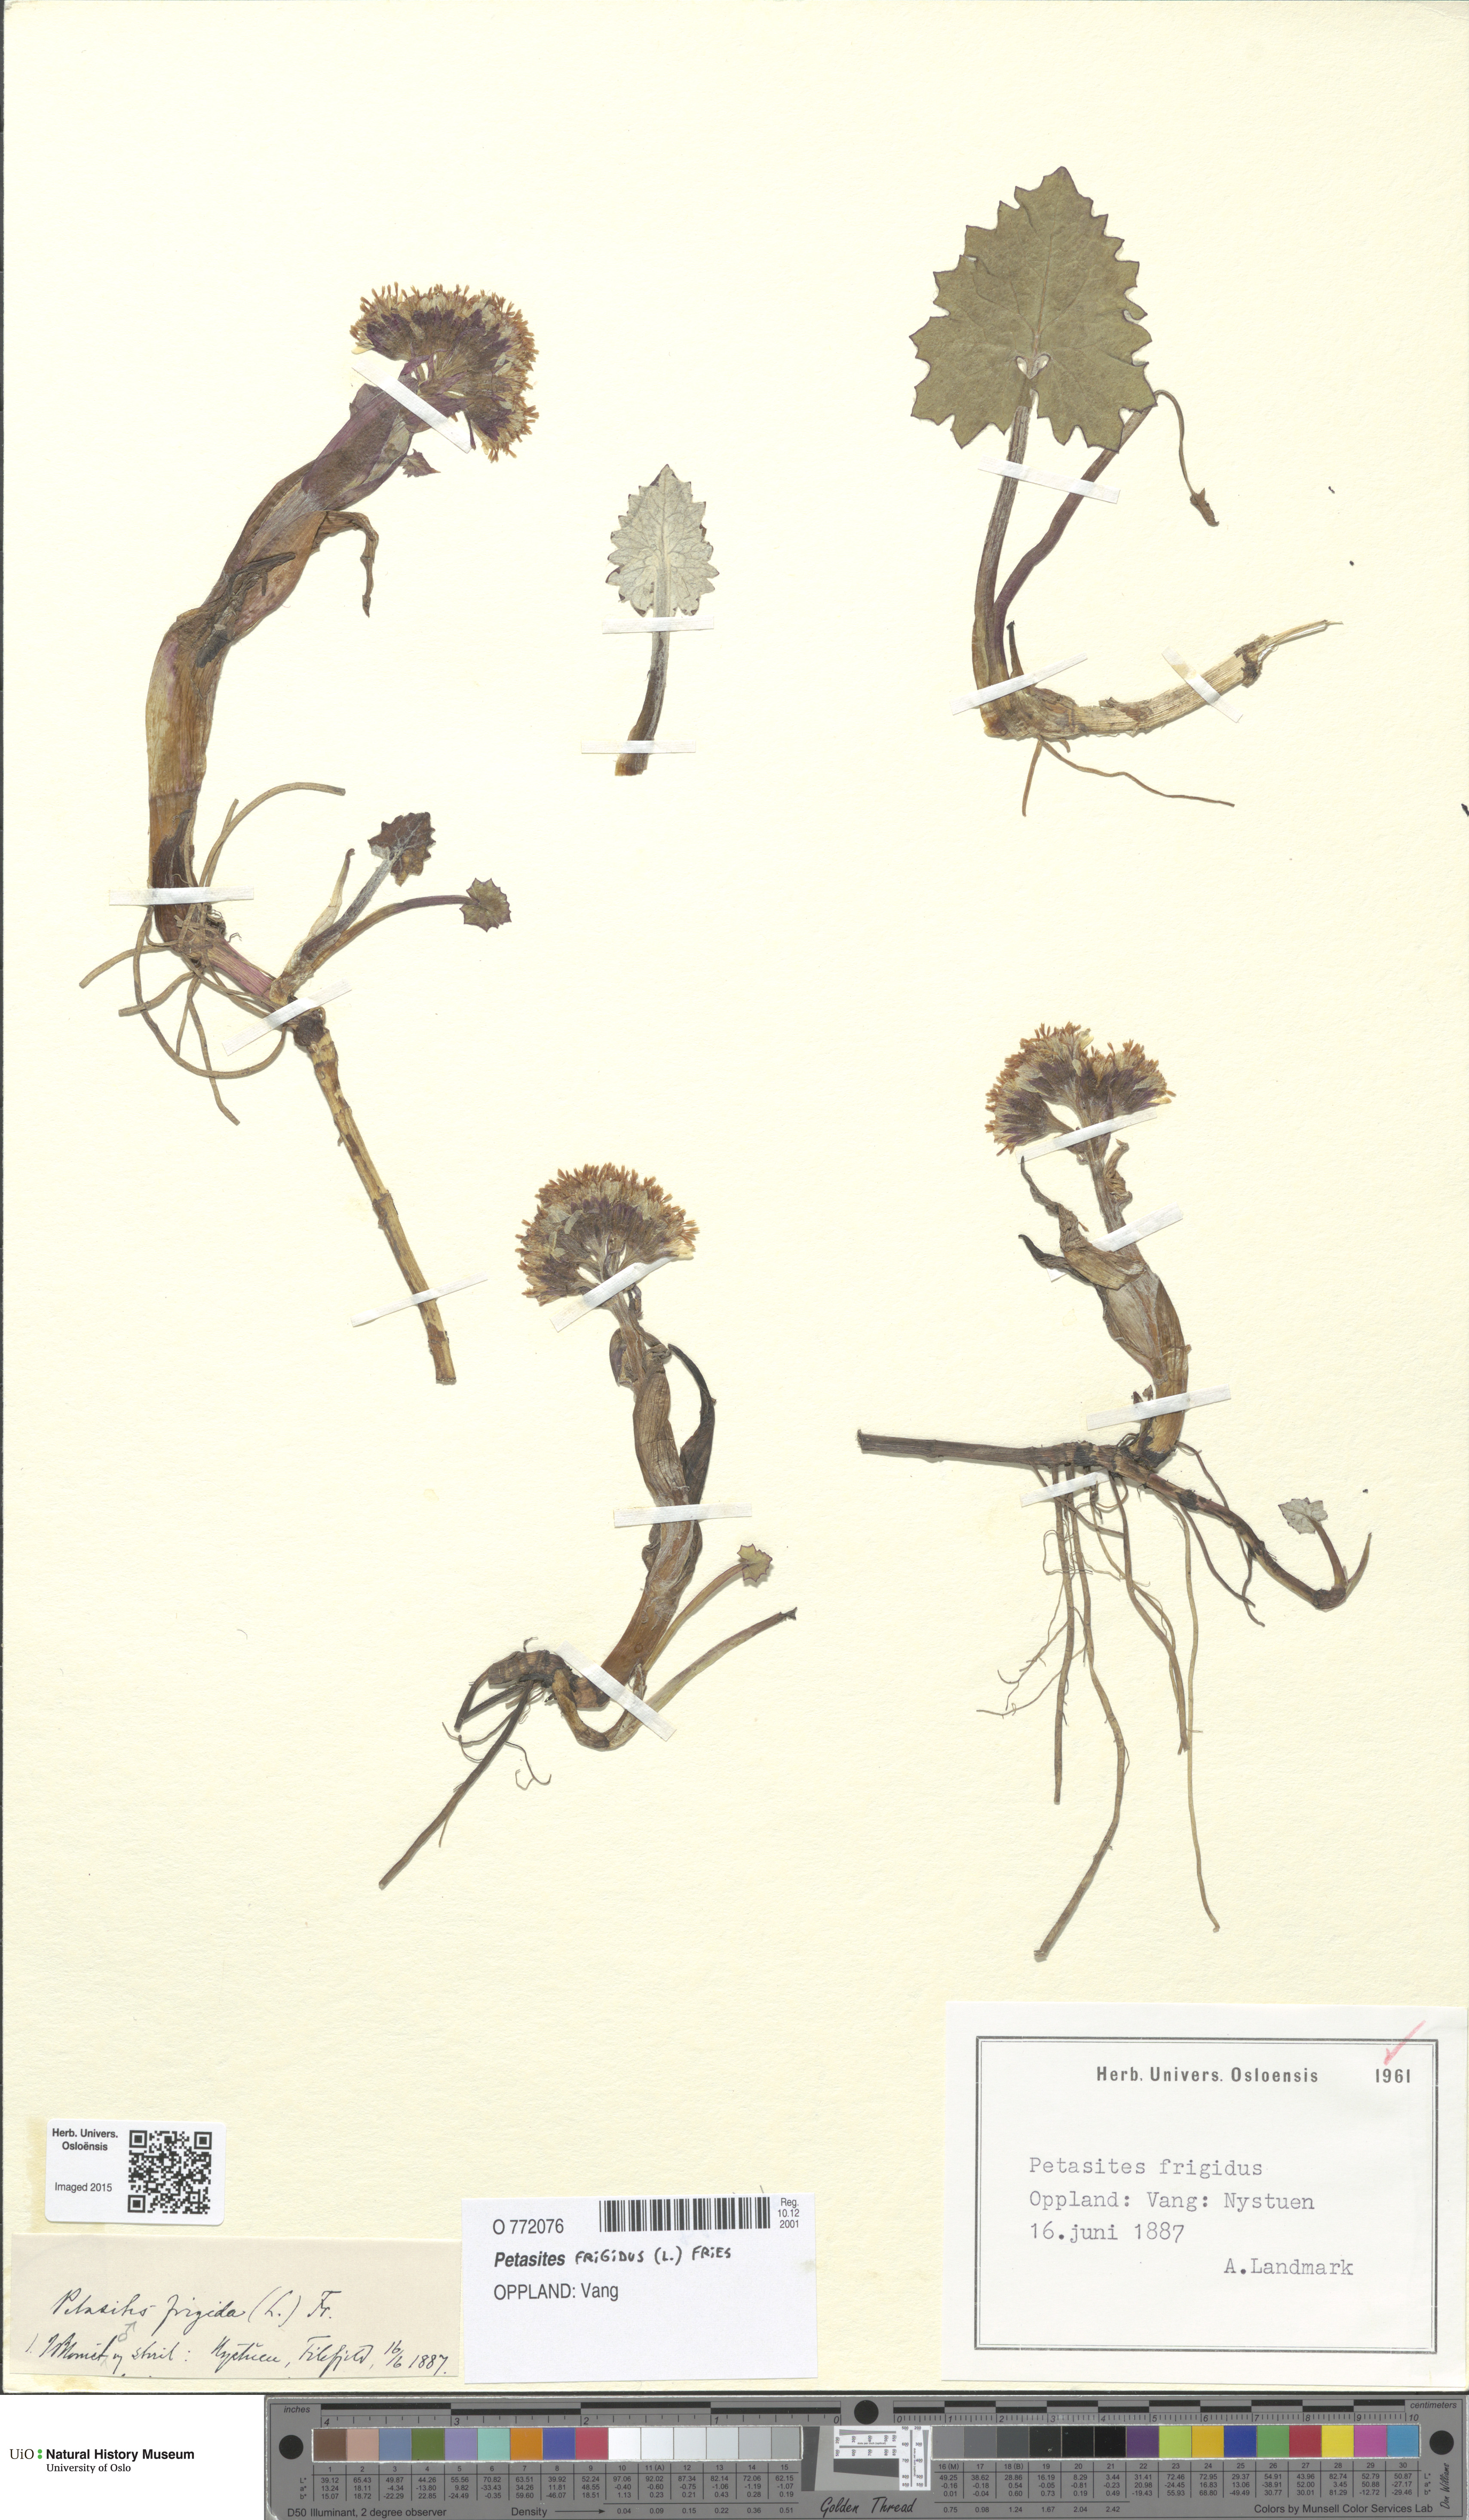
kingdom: Plantae
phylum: Tracheophyta
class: Magnoliopsida
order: Asterales
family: Asteraceae
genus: Petasites
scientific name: Petasites frigidus
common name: Arctic butterbur
